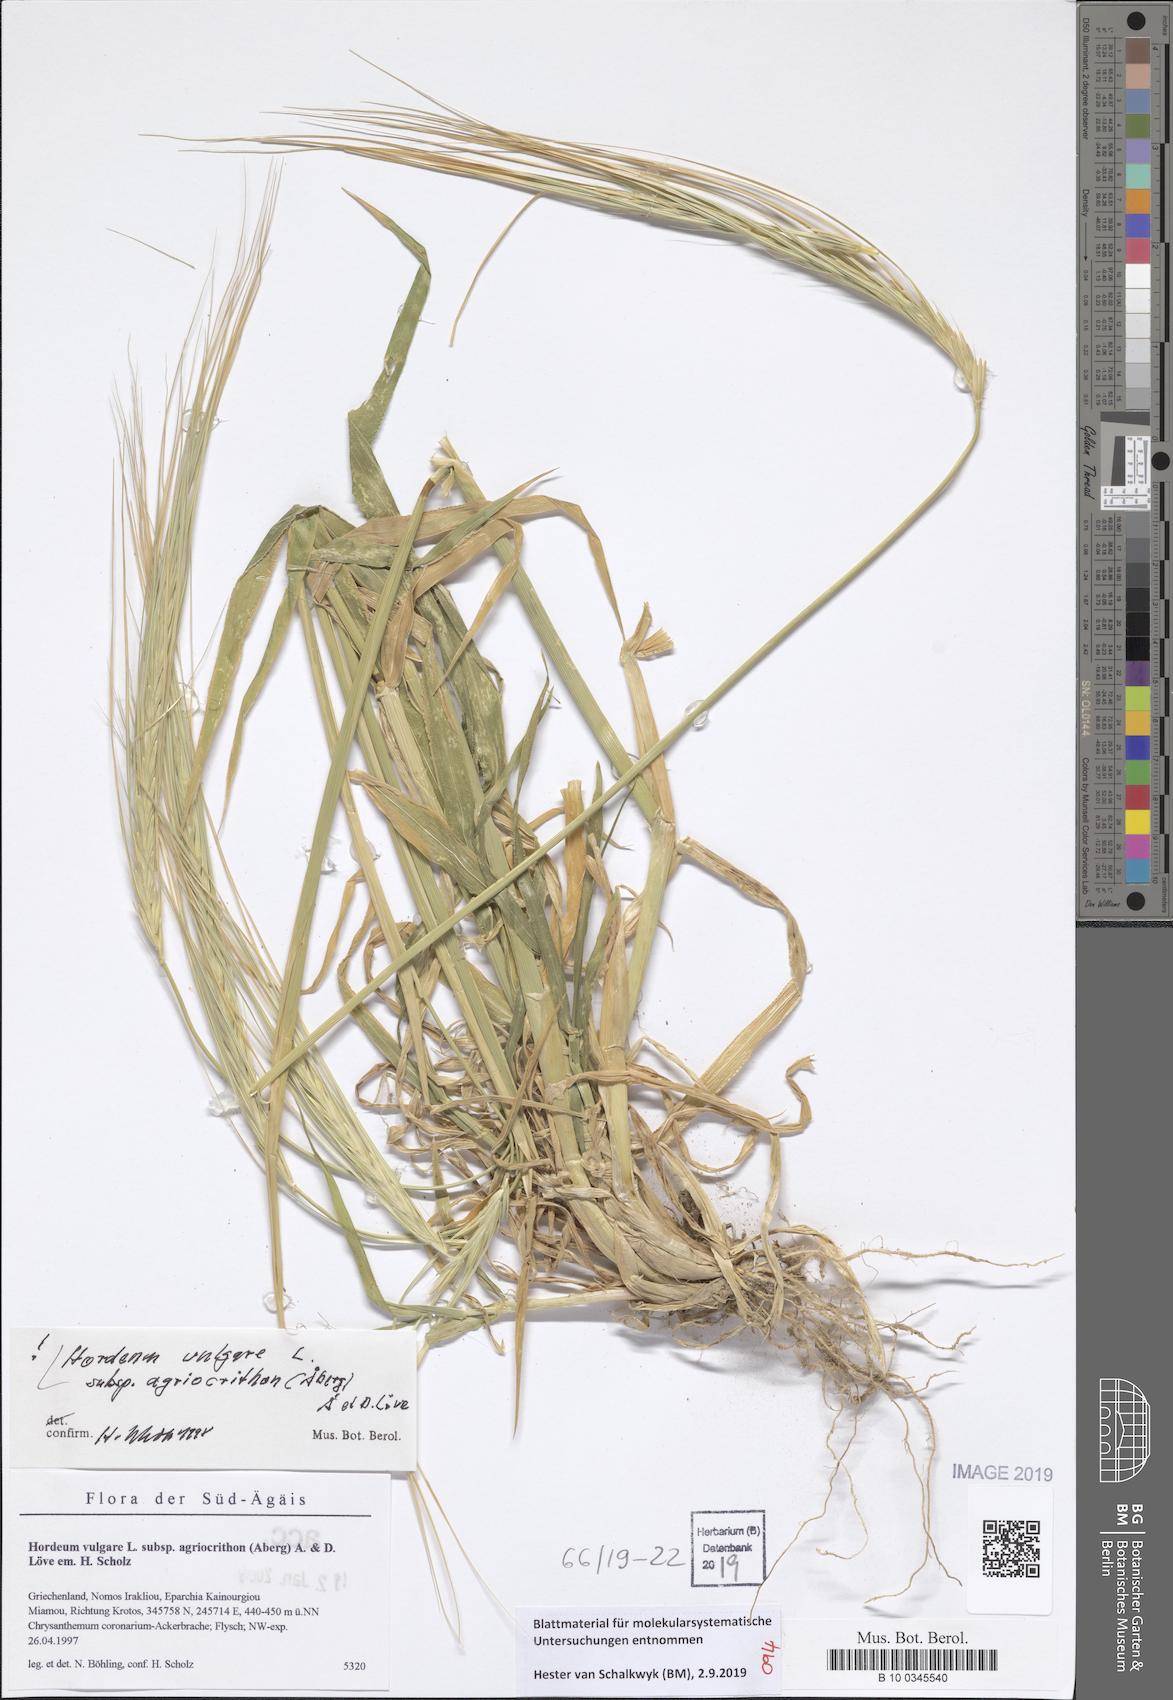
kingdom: Plantae
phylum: Tracheophyta
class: Liliopsida
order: Poales
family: Poaceae
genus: Hordeum
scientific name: Hordeum spontaneum
